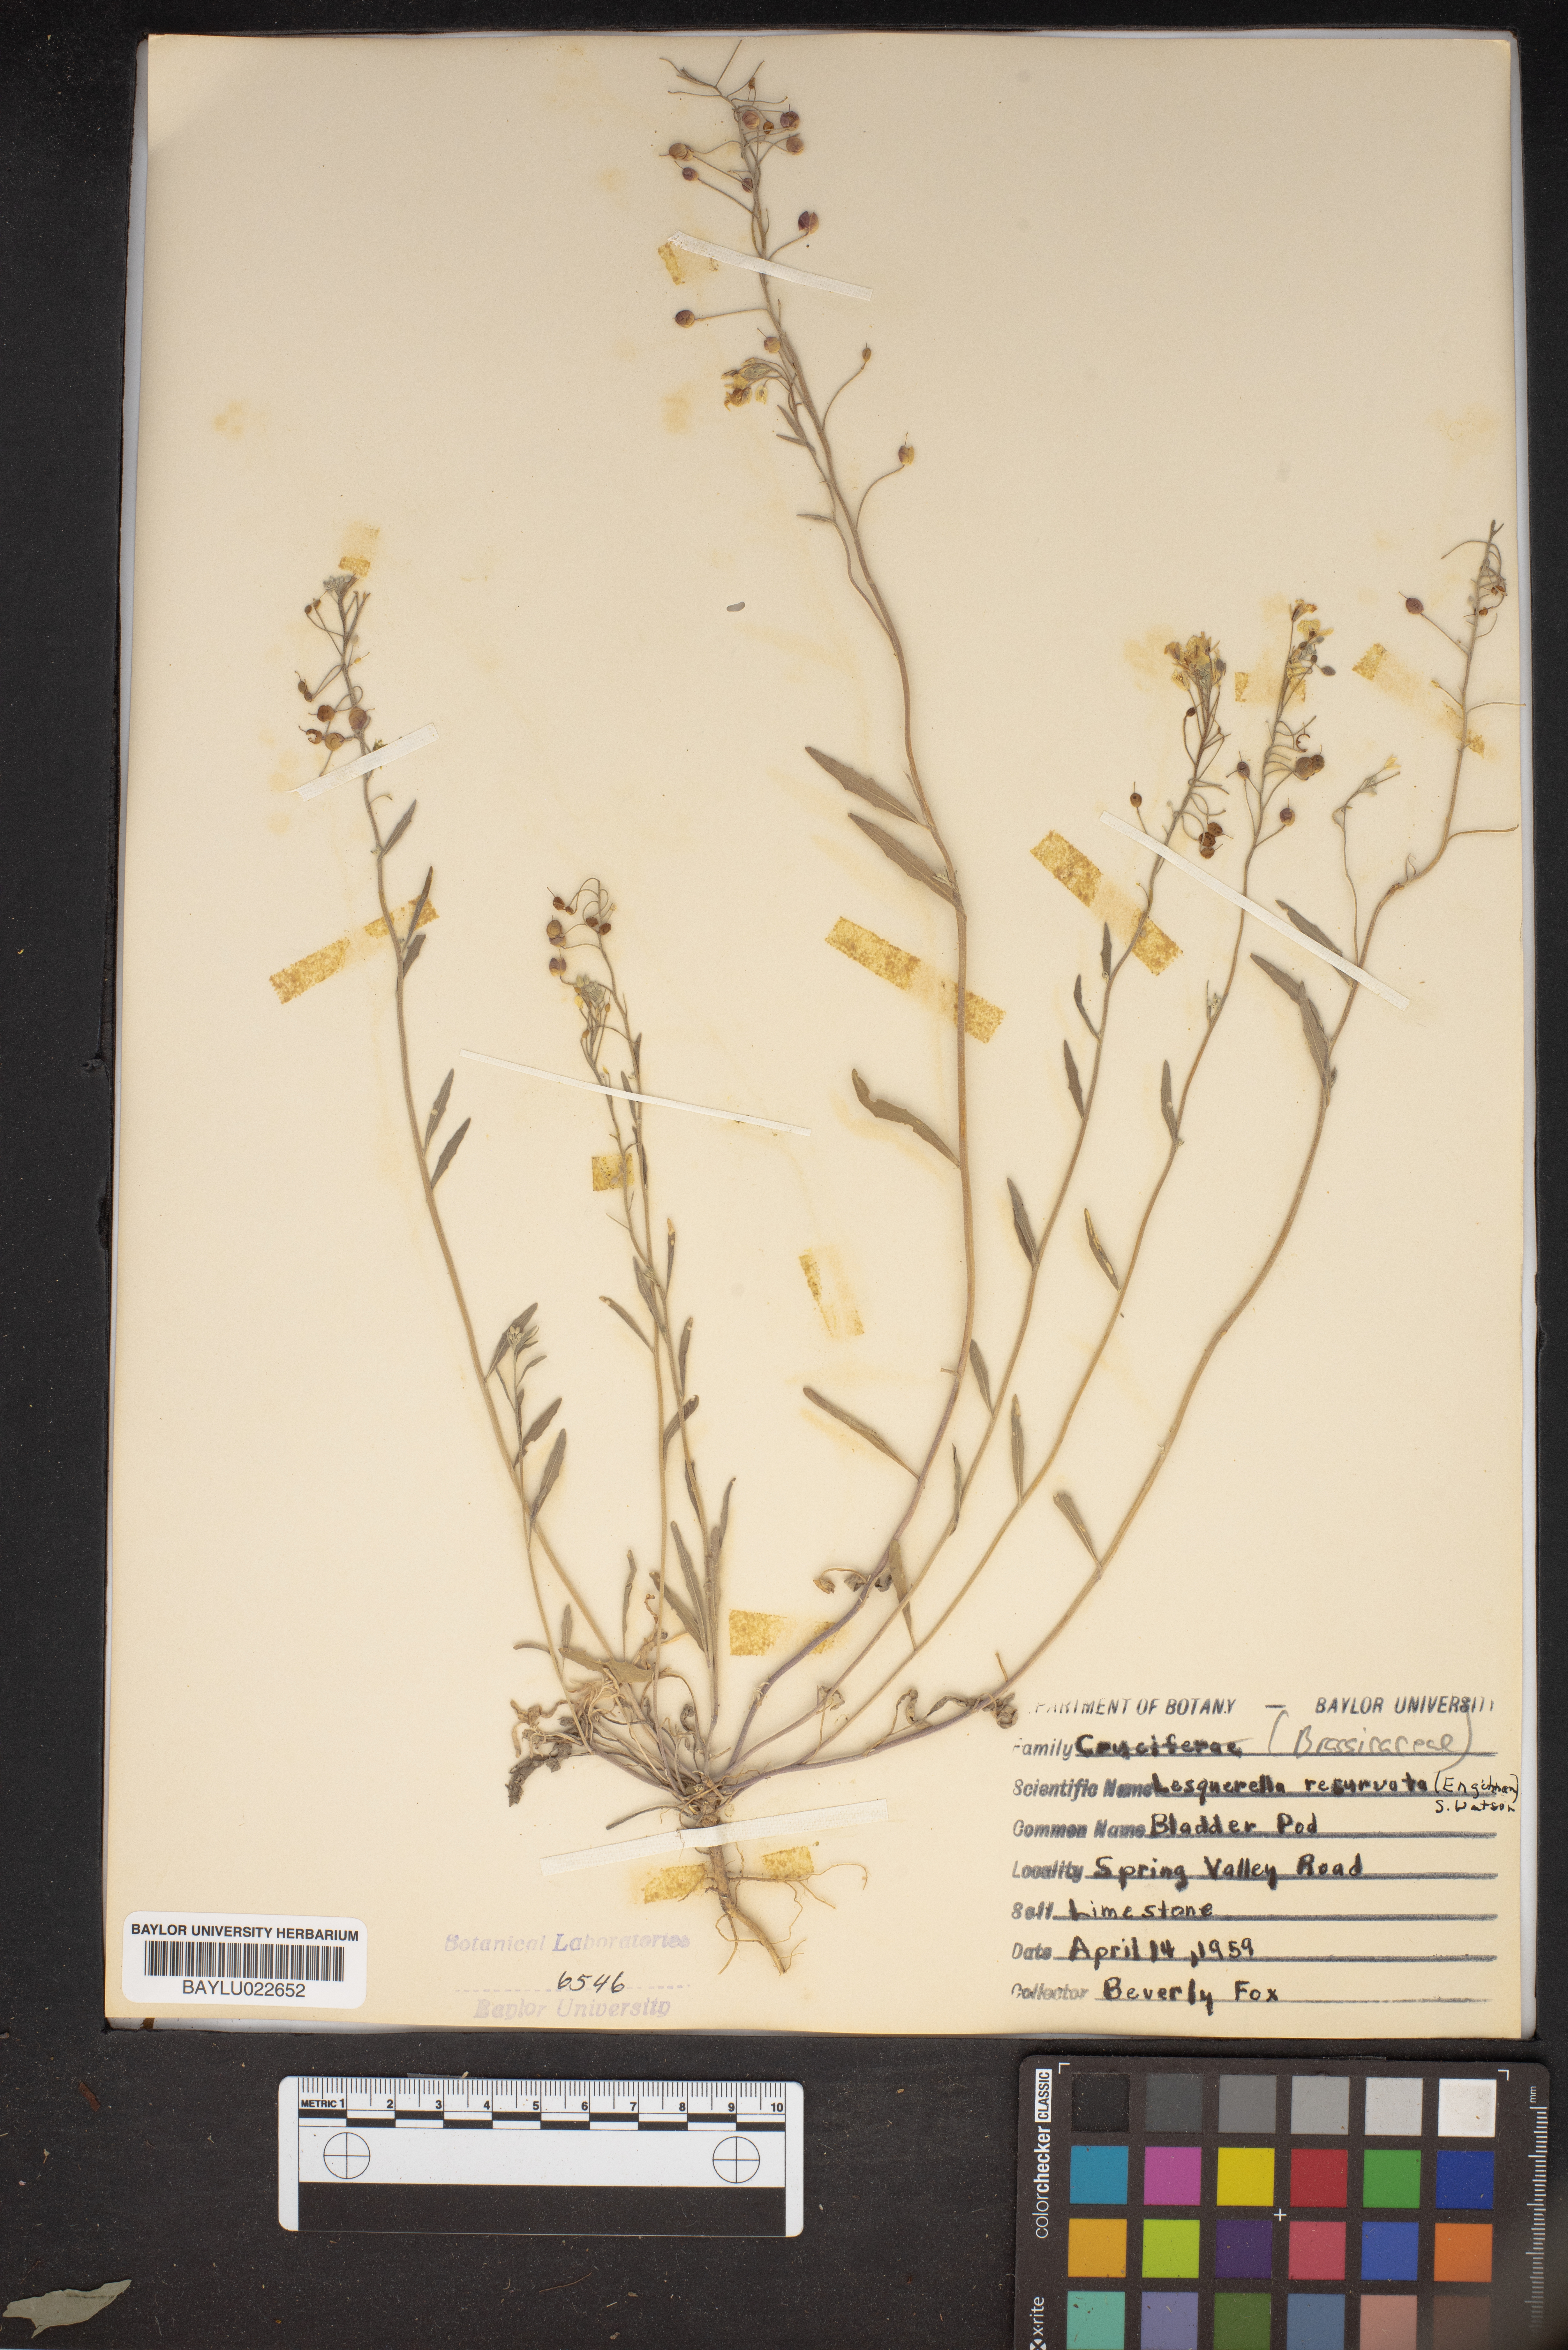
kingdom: Plantae
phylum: Tracheophyta
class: Magnoliopsida
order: Brassicales
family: Brassicaceae
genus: Physaria
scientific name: Physaria recurvata
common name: Gaslight bladderpod
